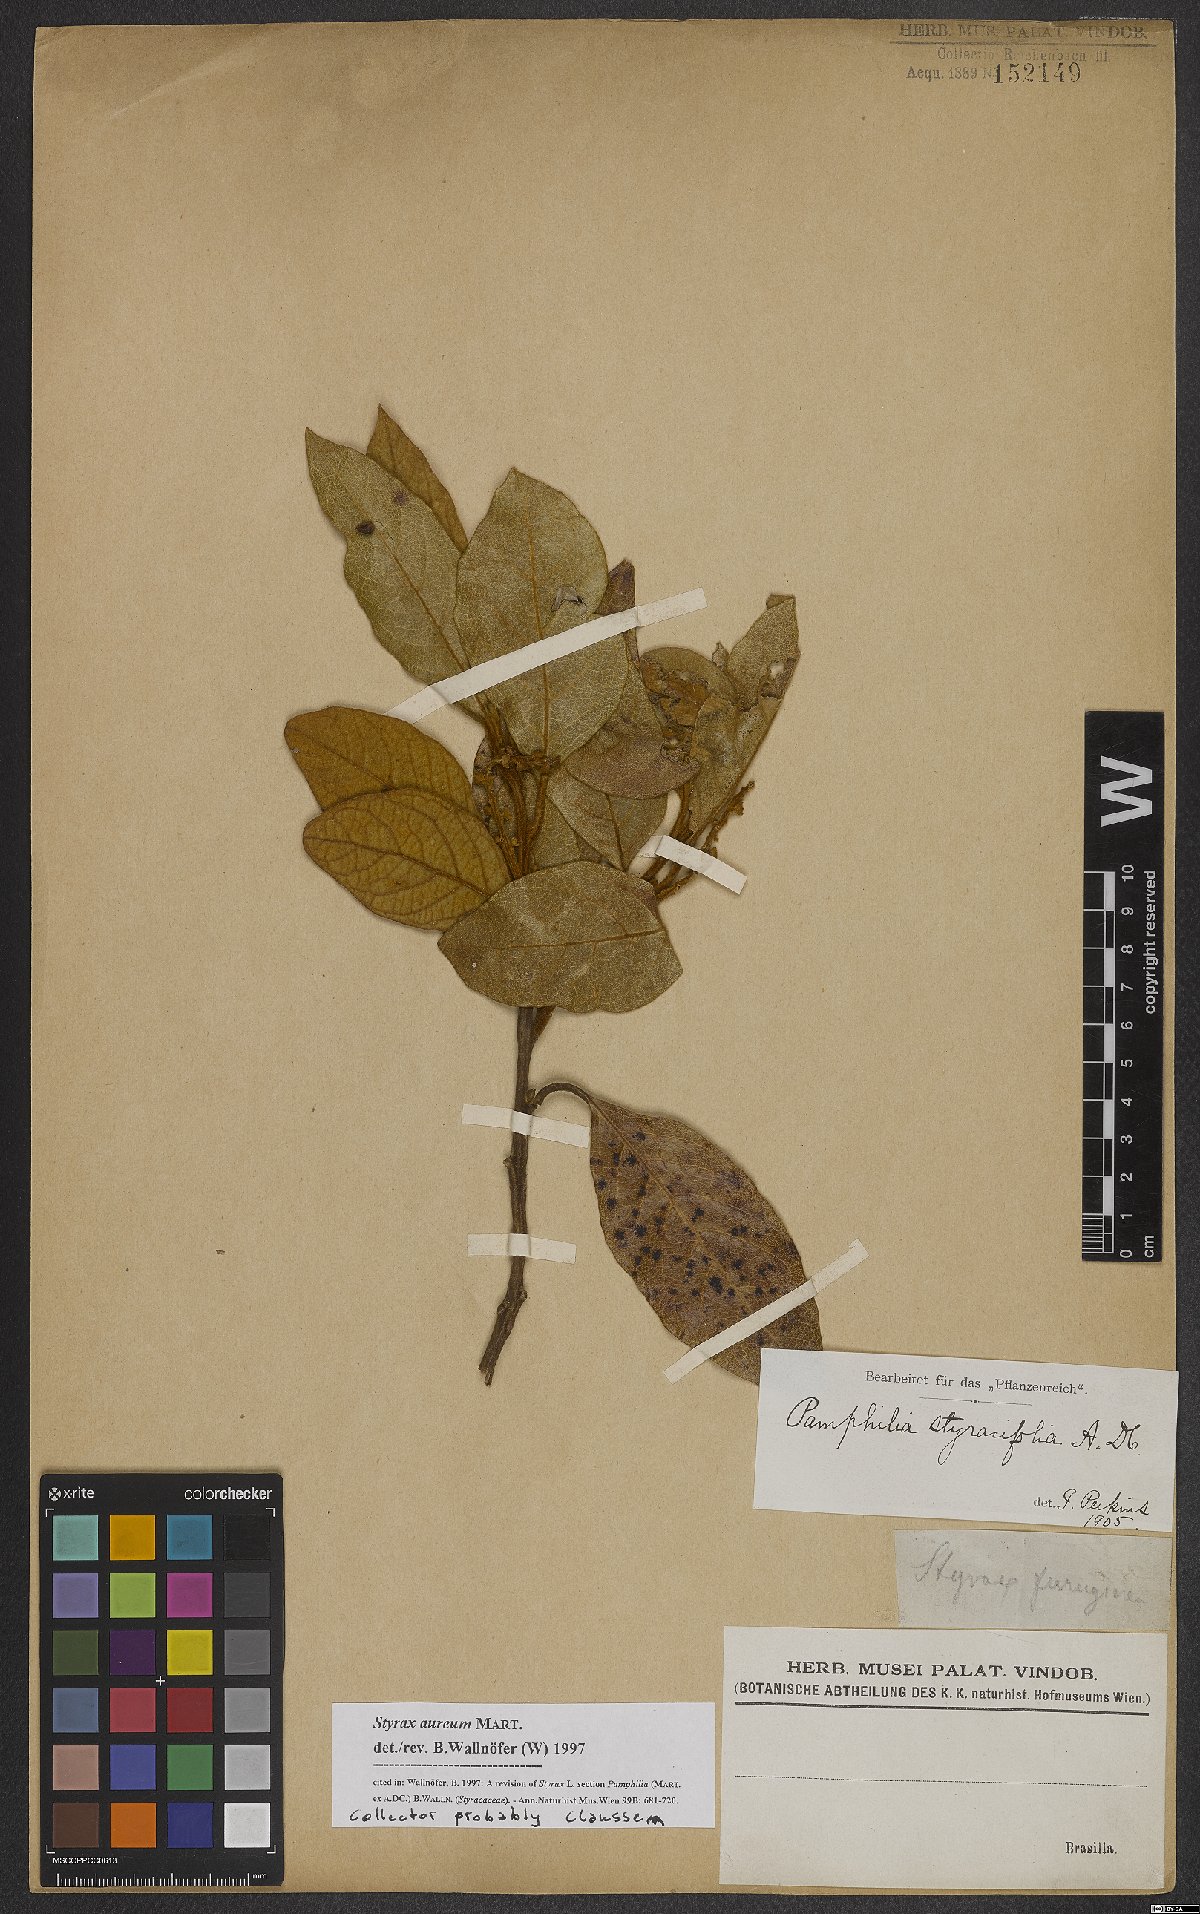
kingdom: Plantae
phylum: Tracheophyta
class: Magnoliopsida
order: Ericales
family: Styracaceae
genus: Styrax
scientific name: Styrax aureus
